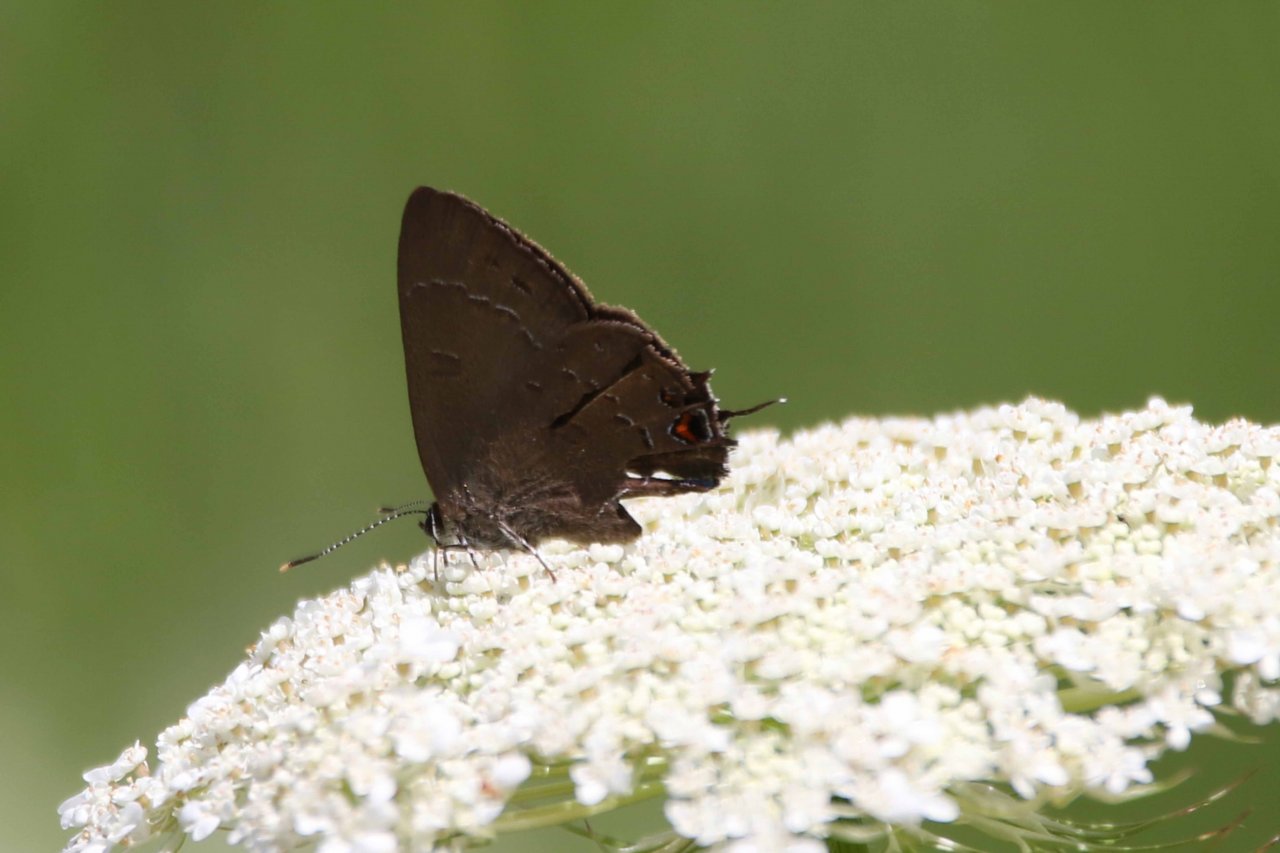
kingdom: Animalia
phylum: Arthropoda
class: Insecta
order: Lepidoptera
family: Lycaenidae
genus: Satyrium
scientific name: Satyrium calanus
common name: Banded Hairstreak
